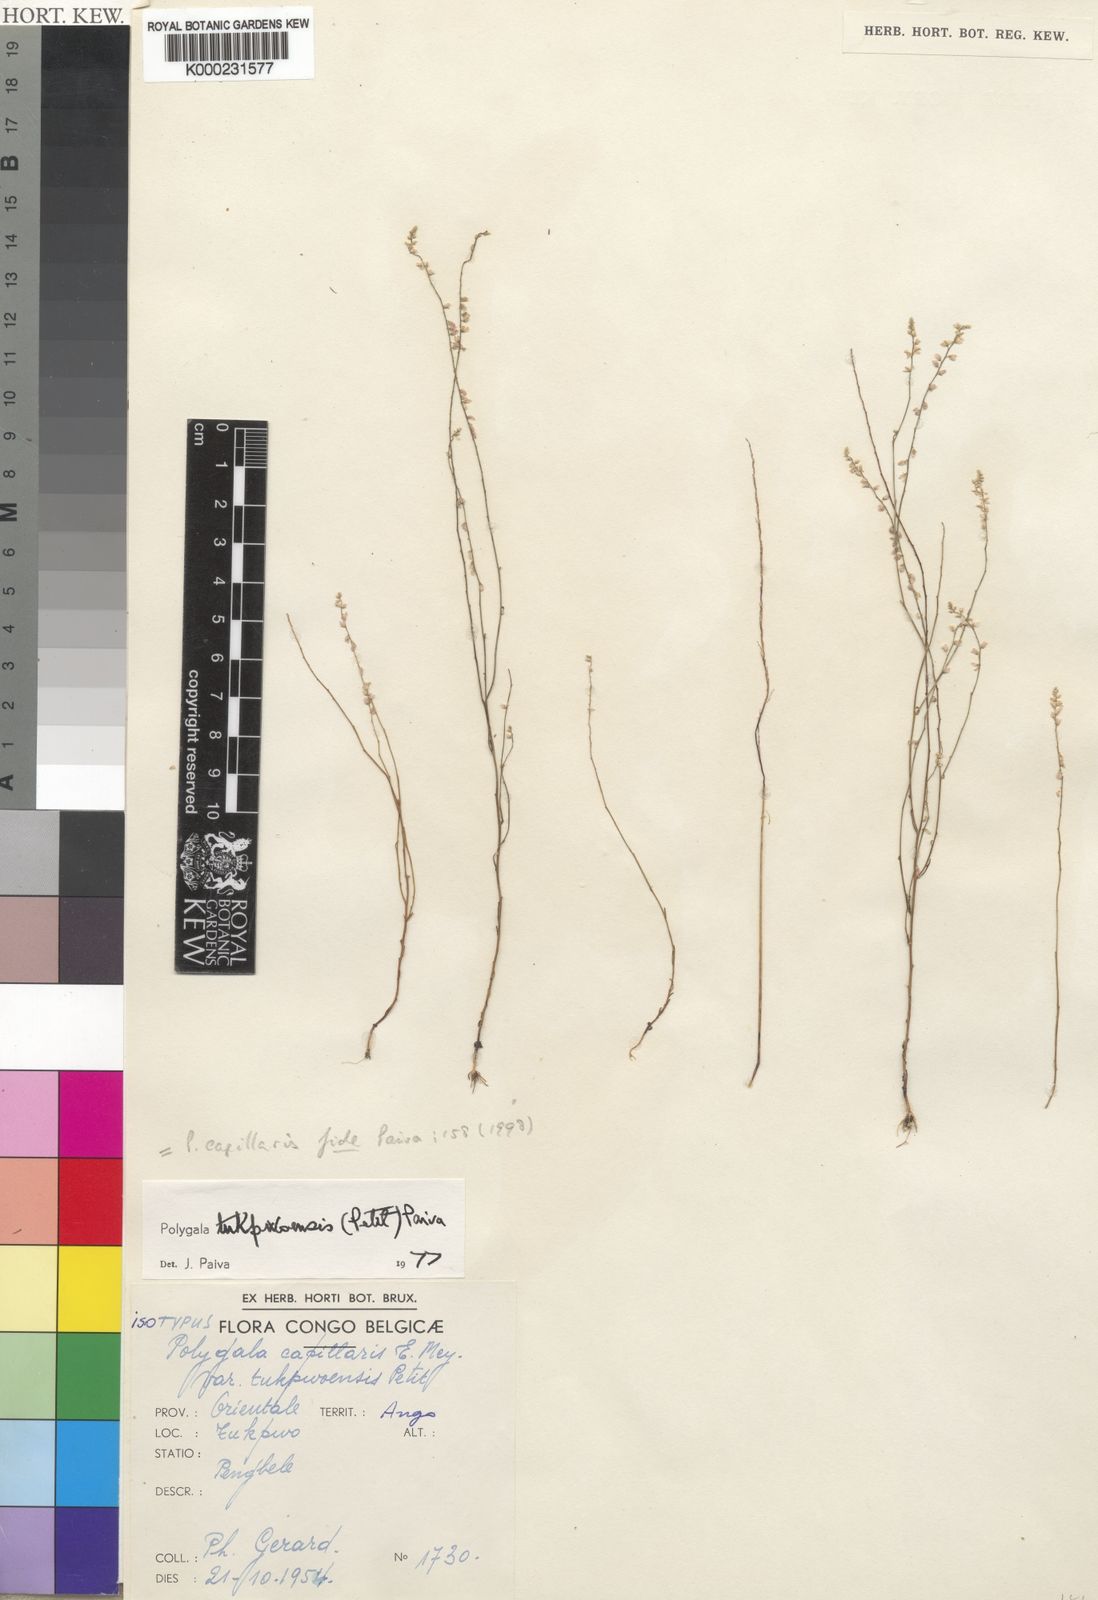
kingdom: Plantae
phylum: Tracheophyta
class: Magnoliopsida
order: Fabales
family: Polygalaceae
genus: Polygala
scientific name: Polygala capillaris
